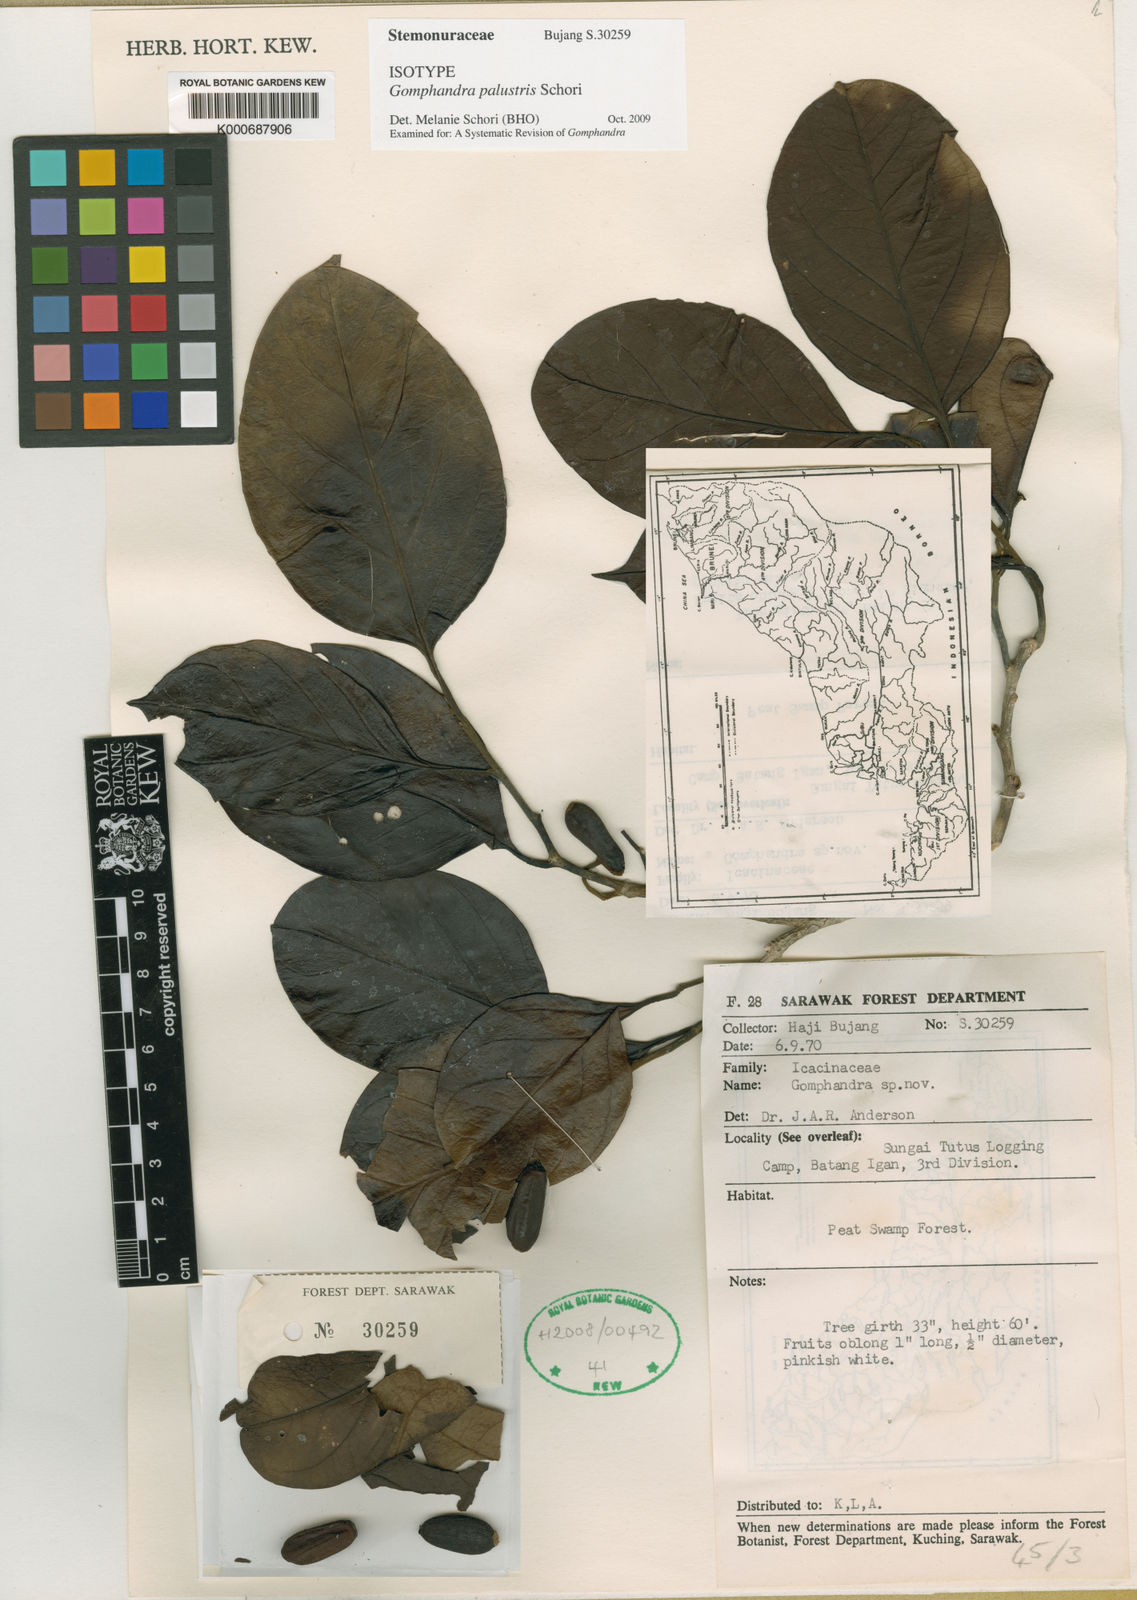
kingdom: Plantae
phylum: Tracheophyta
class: Magnoliopsida
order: Cardiopteridales
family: Stemonuraceae
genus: Gomphandra
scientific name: Gomphandra palustris
